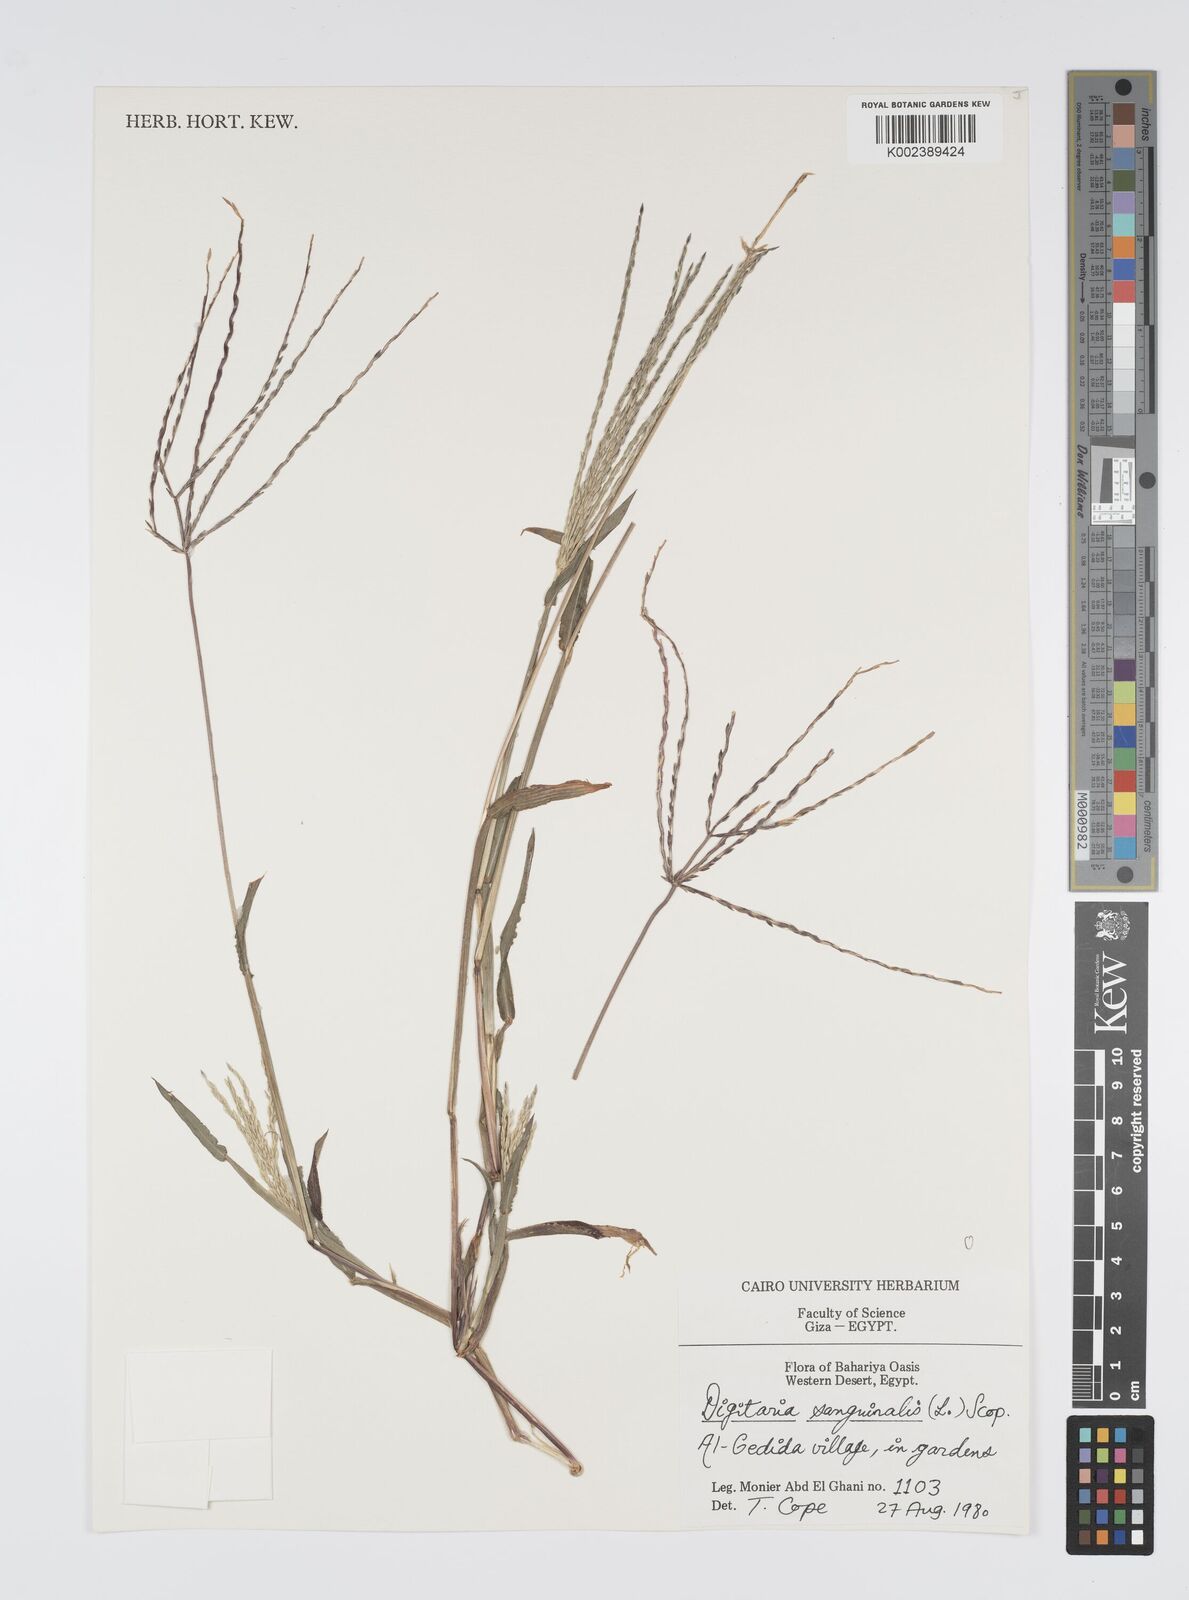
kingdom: Plantae
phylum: Tracheophyta
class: Liliopsida
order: Poales
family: Poaceae
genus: Digitaria
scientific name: Digitaria sanguinalis
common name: Hairy crabgrass
